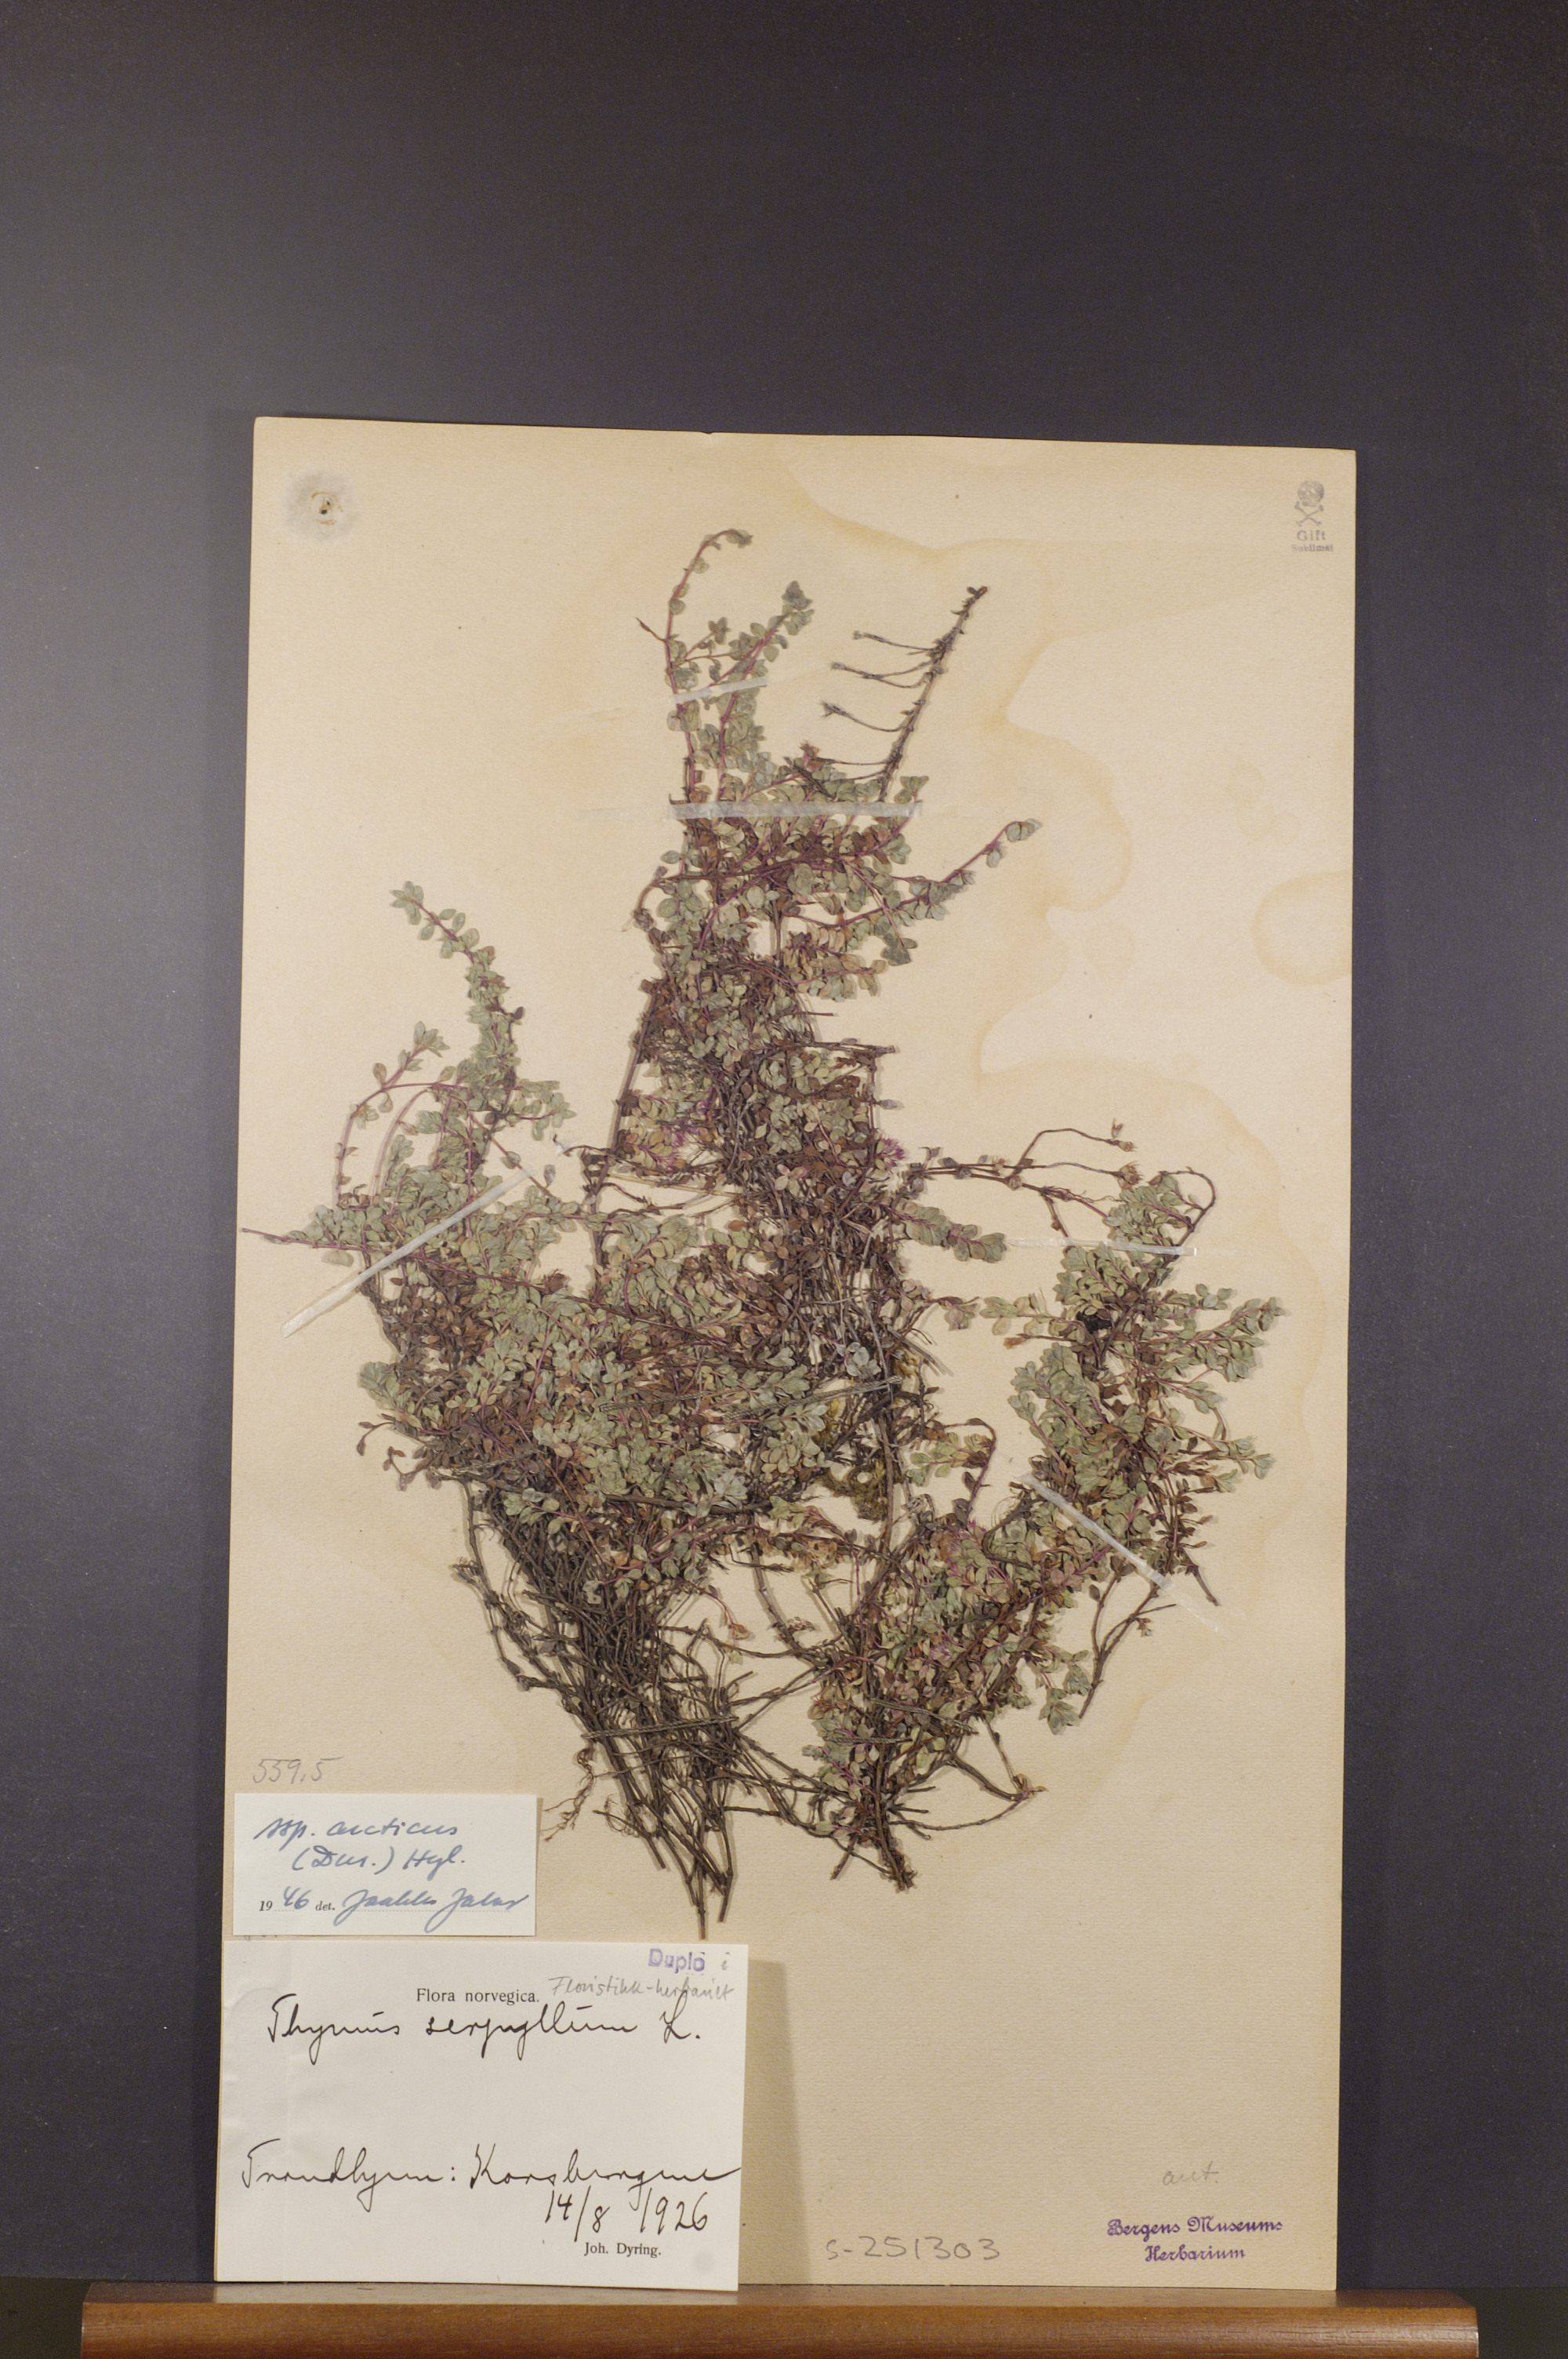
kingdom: Plantae
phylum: Tracheophyta
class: Magnoliopsida
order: Lamiales
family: Lamiaceae
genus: Thymus
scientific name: Thymus praecox
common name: Wild thyme
